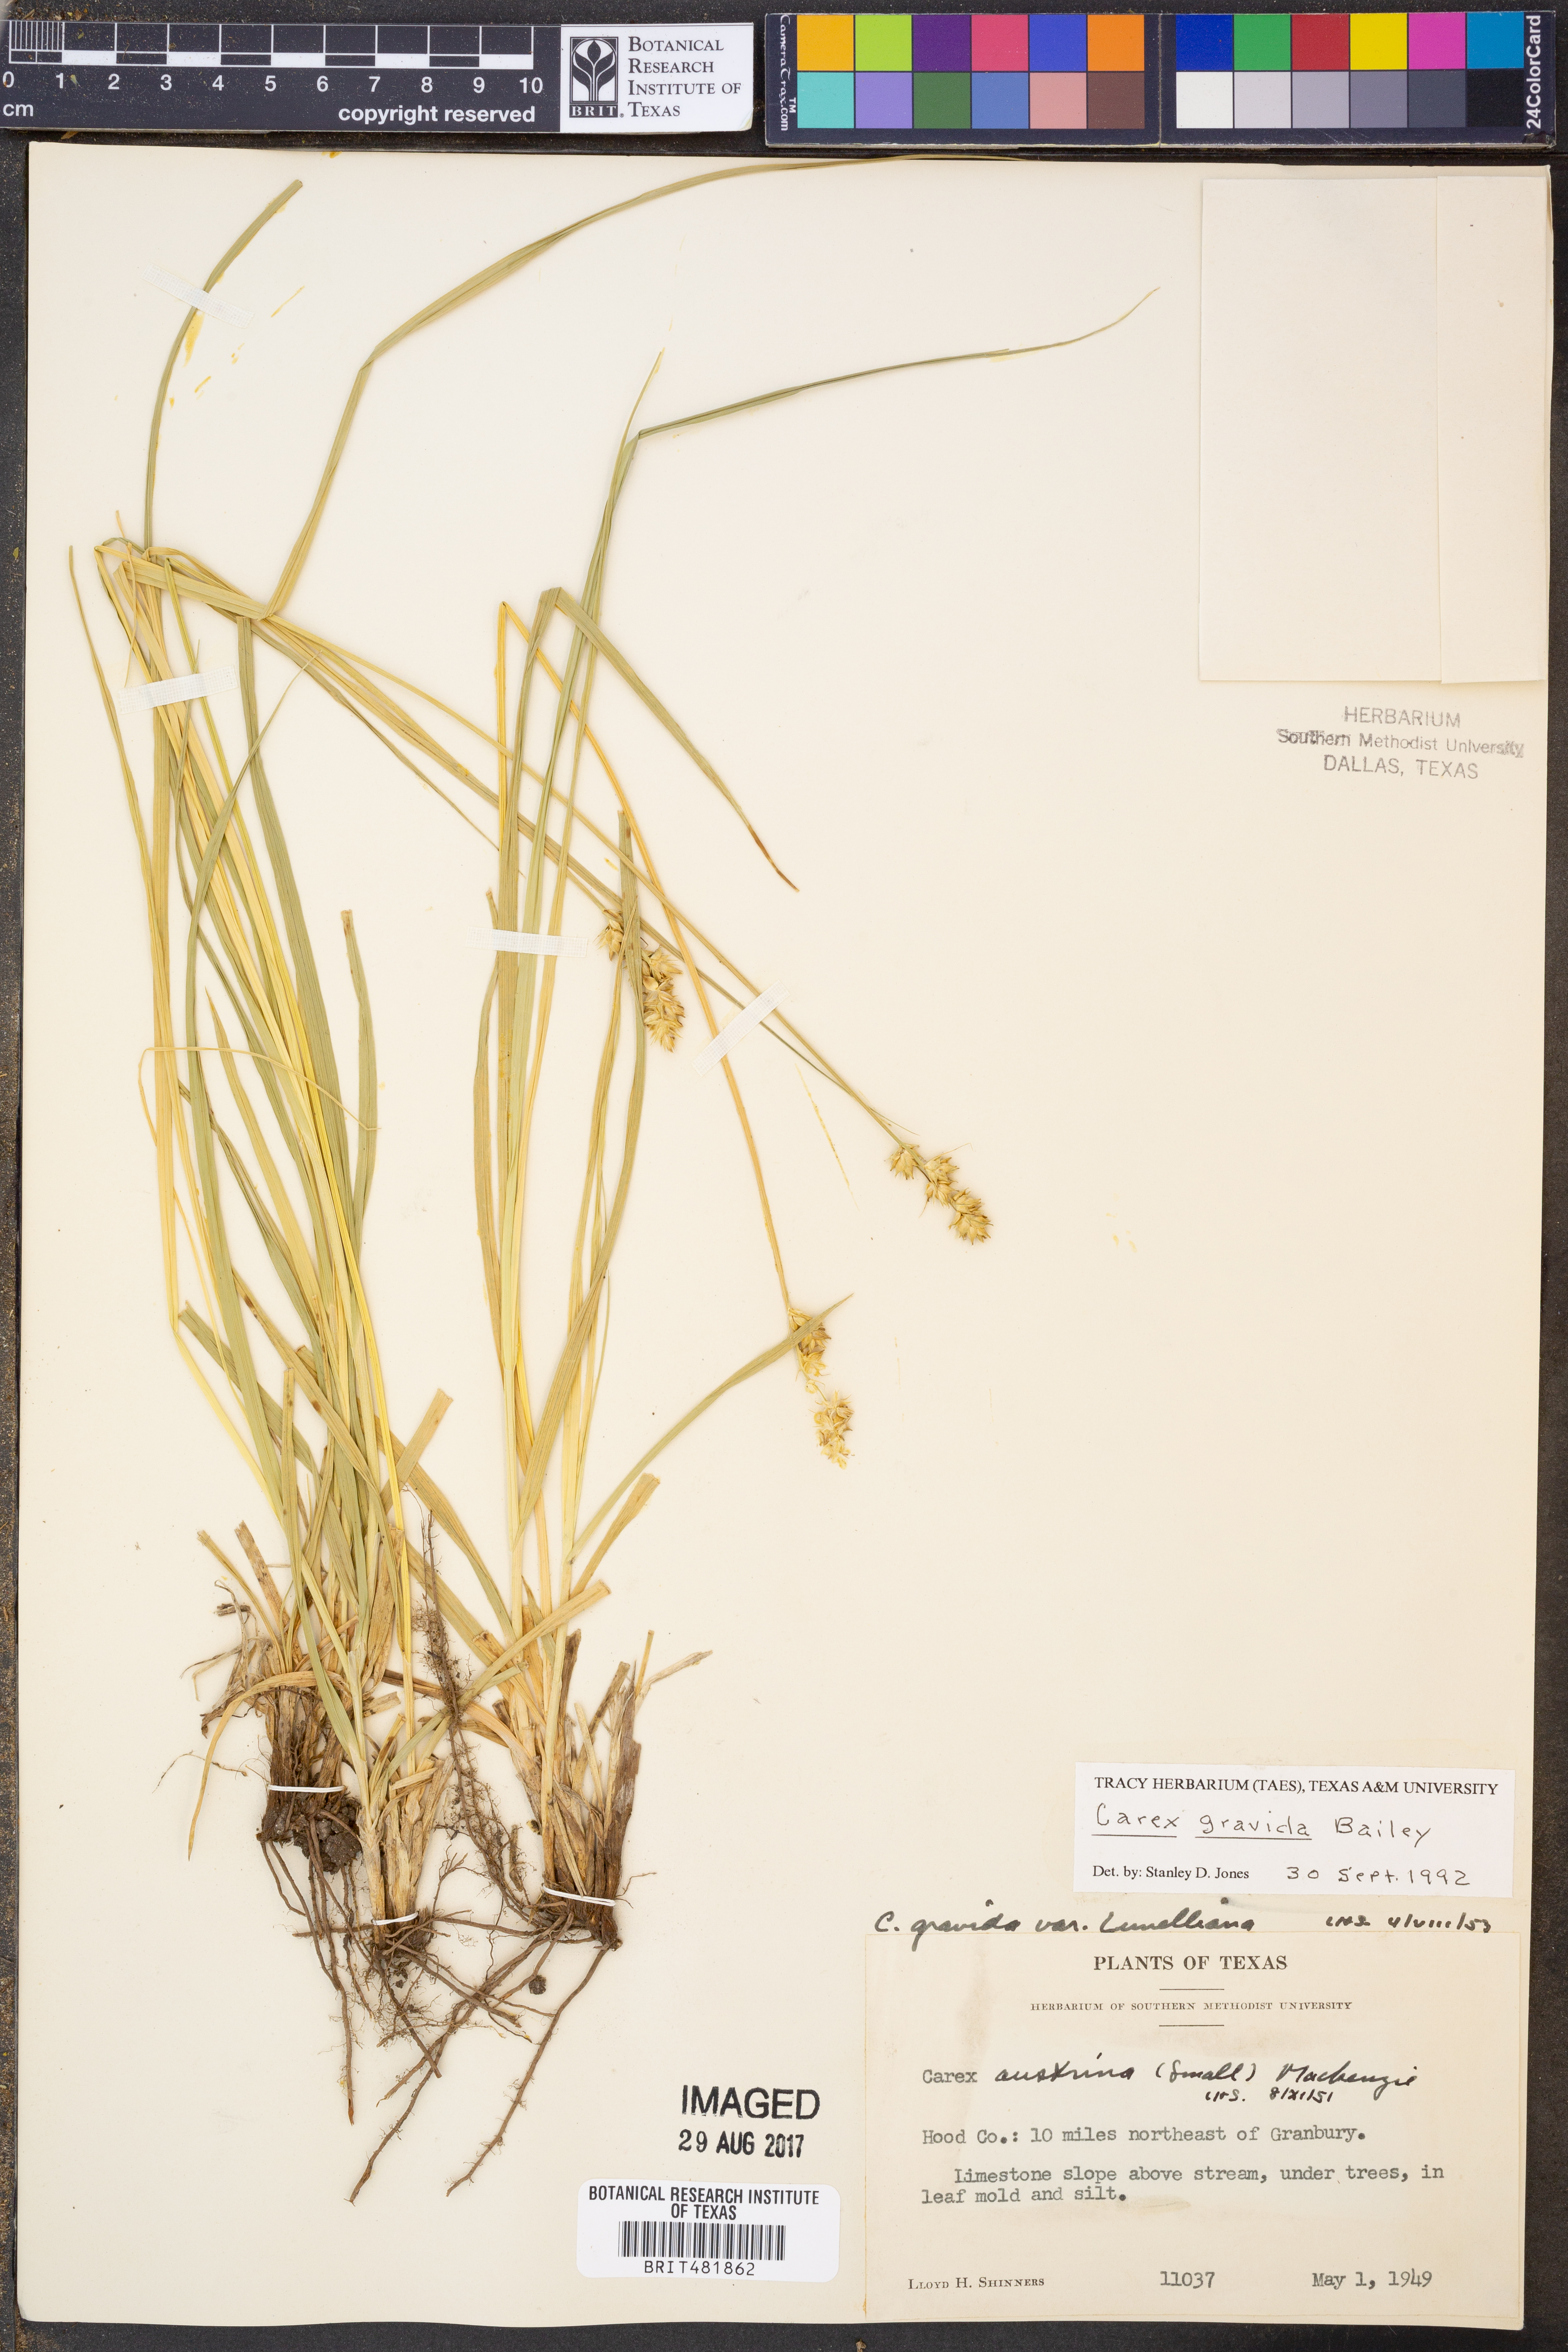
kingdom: Plantae
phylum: Tracheophyta
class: Liliopsida
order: Poales
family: Cyperaceae
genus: Carex
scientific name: Carex gravida
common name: Heavy sedge
